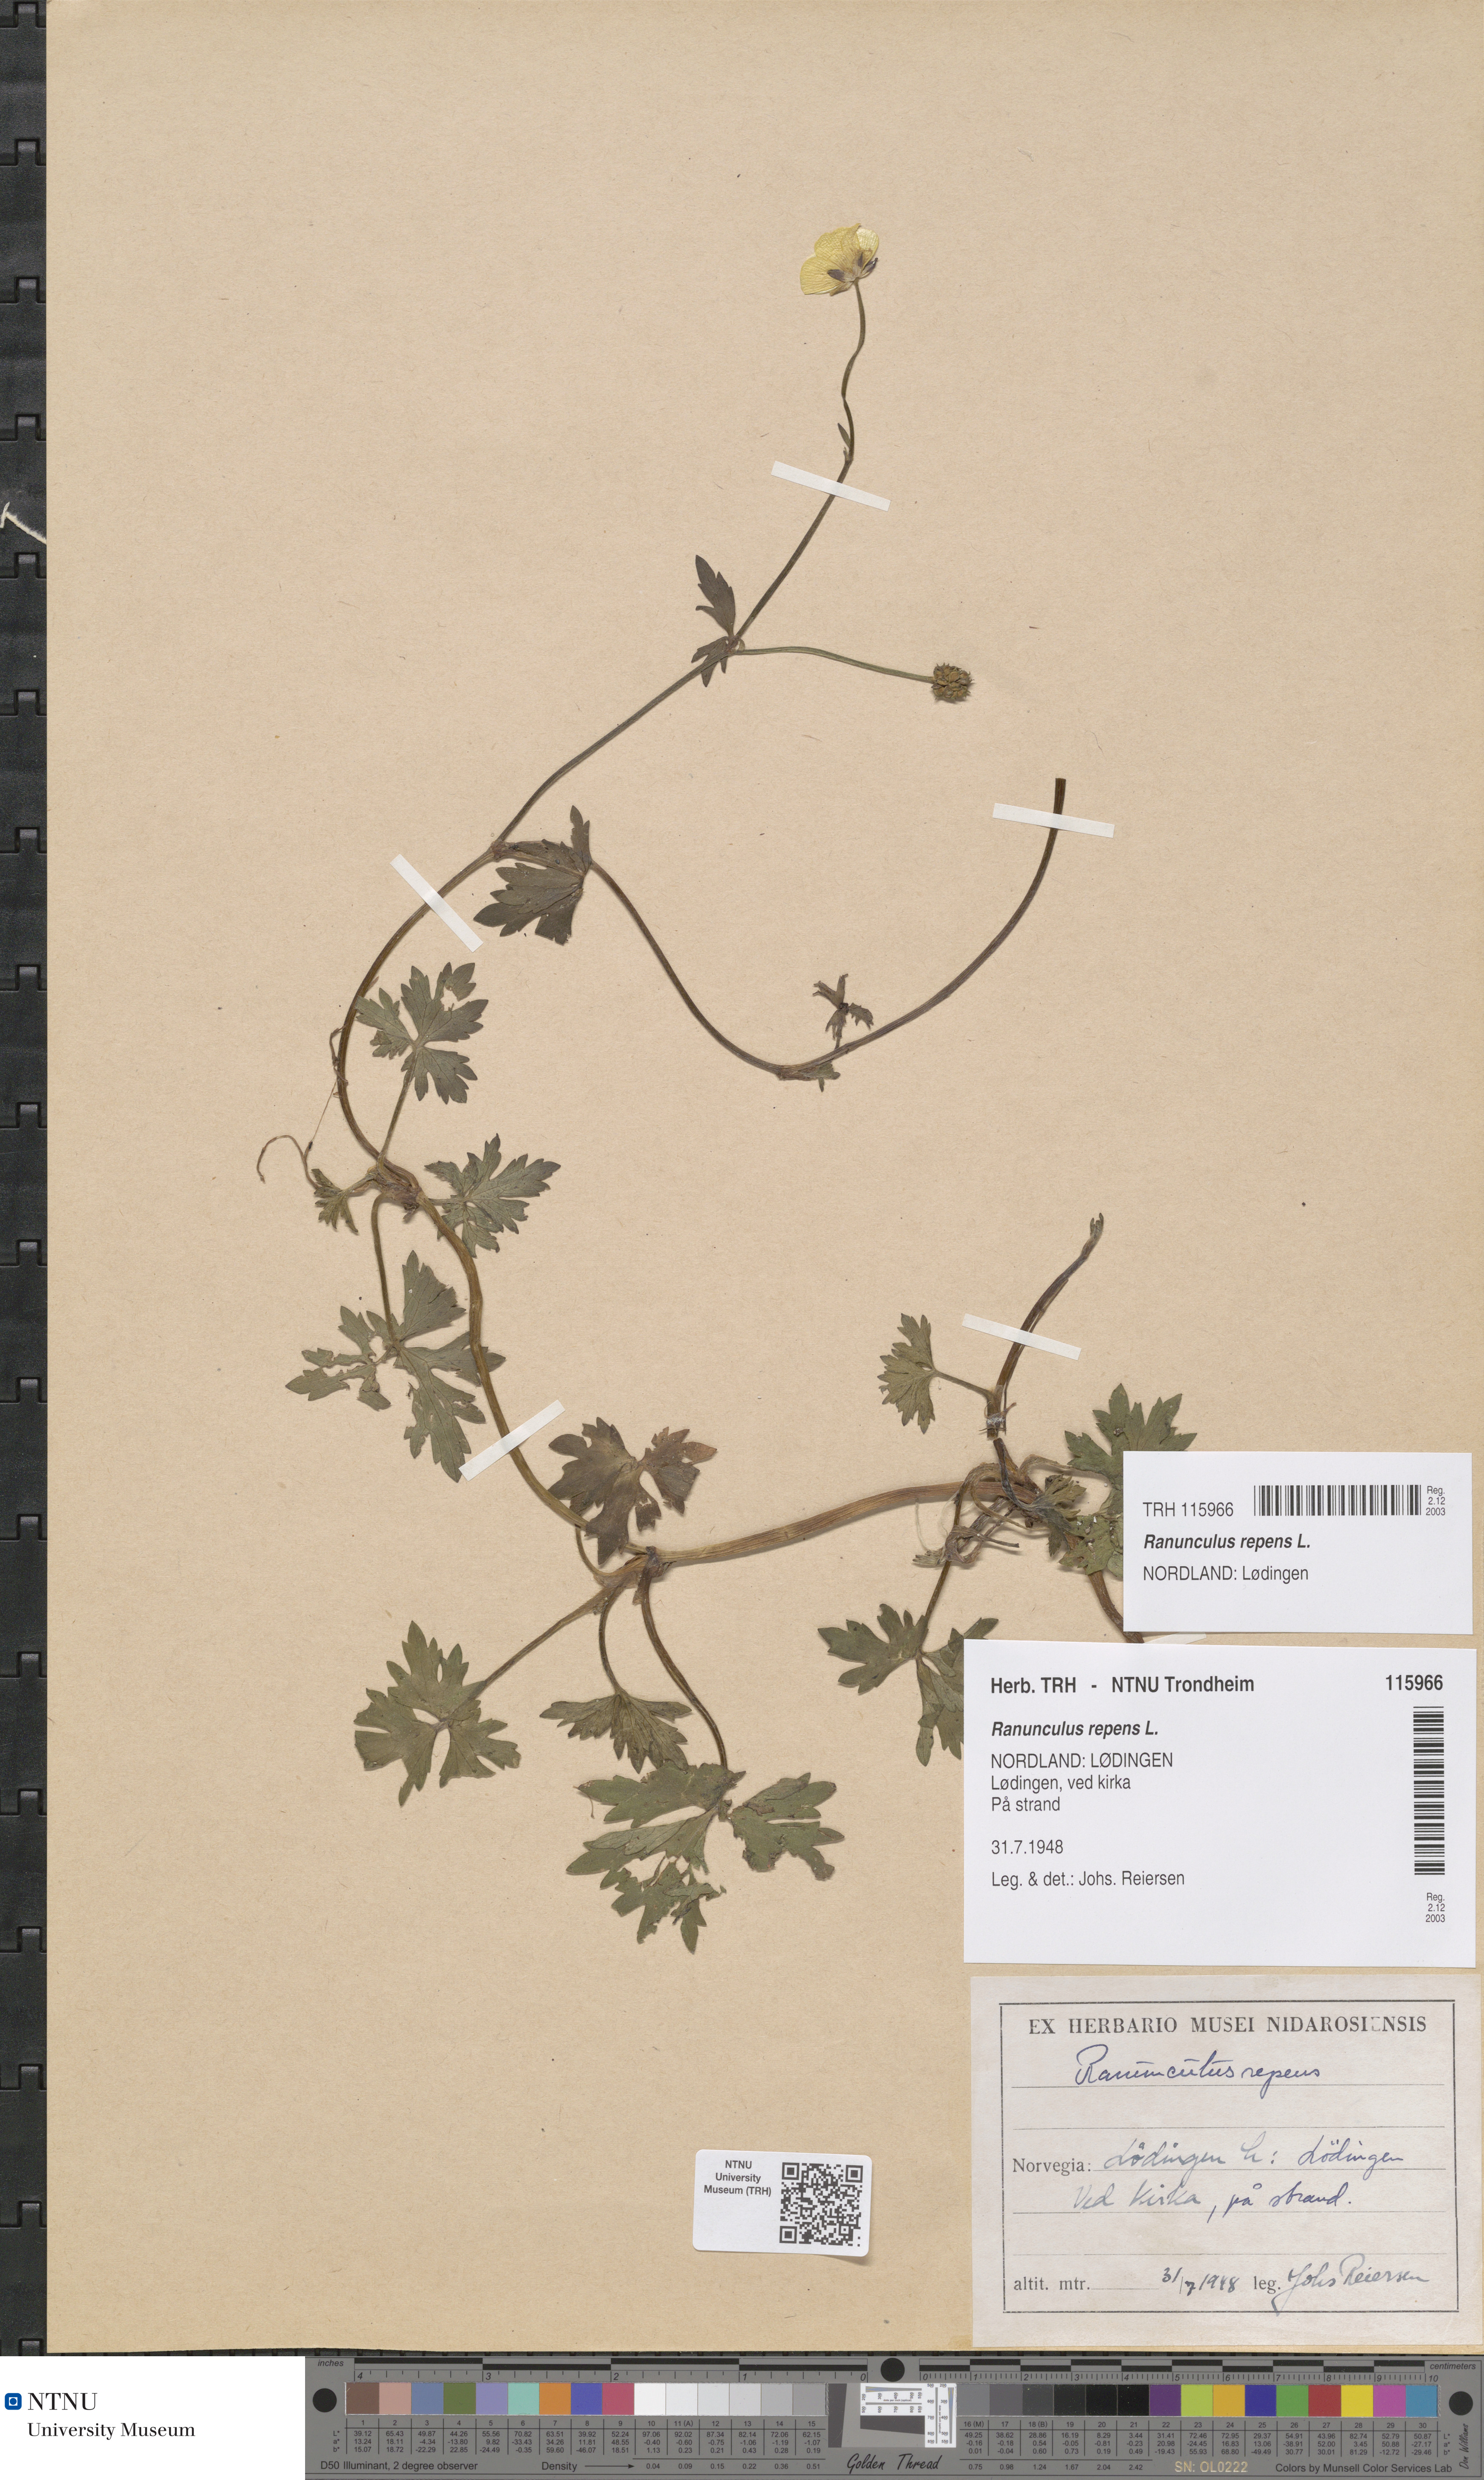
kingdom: Plantae
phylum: Tracheophyta
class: Magnoliopsida
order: Ranunculales
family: Ranunculaceae
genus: Ranunculus
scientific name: Ranunculus repens
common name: Creeping buttercup
